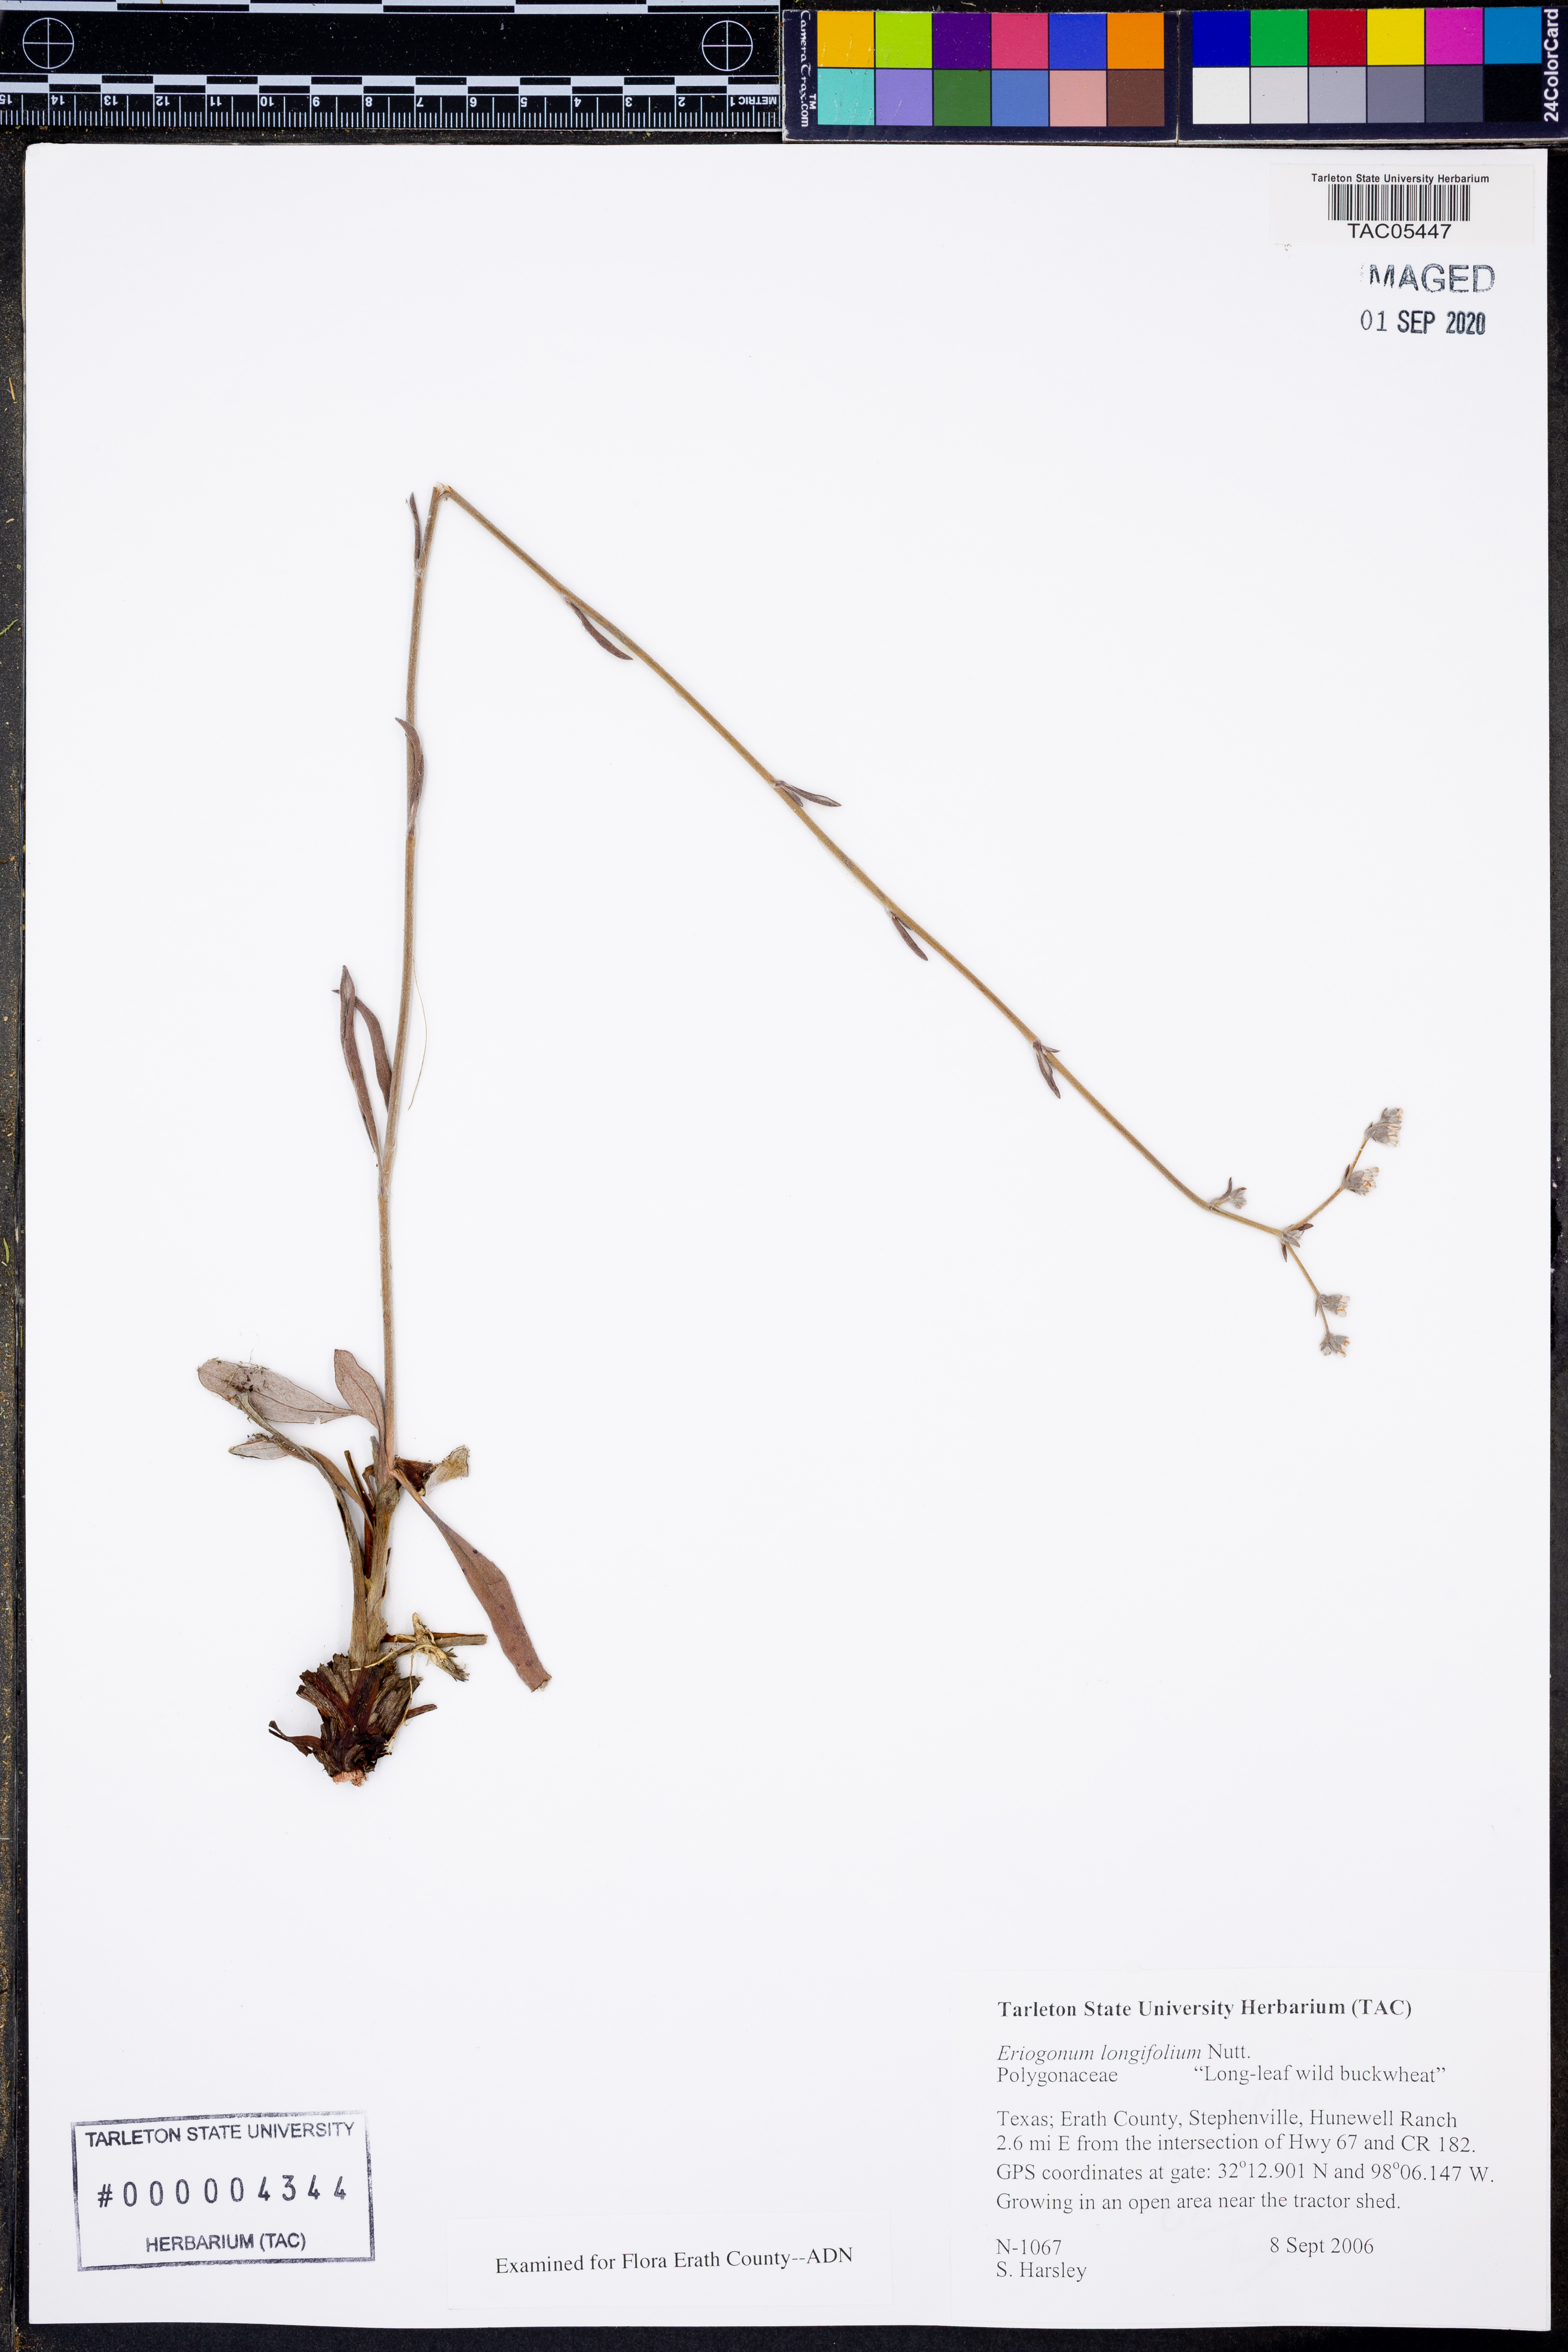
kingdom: Plantae
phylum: Tracheophyta
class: Magnoliopsida
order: Caryophyllales
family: Polygonaceae
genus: Eriogonum
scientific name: Eriogonum longifolium
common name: Longleaf wild buckwheat
